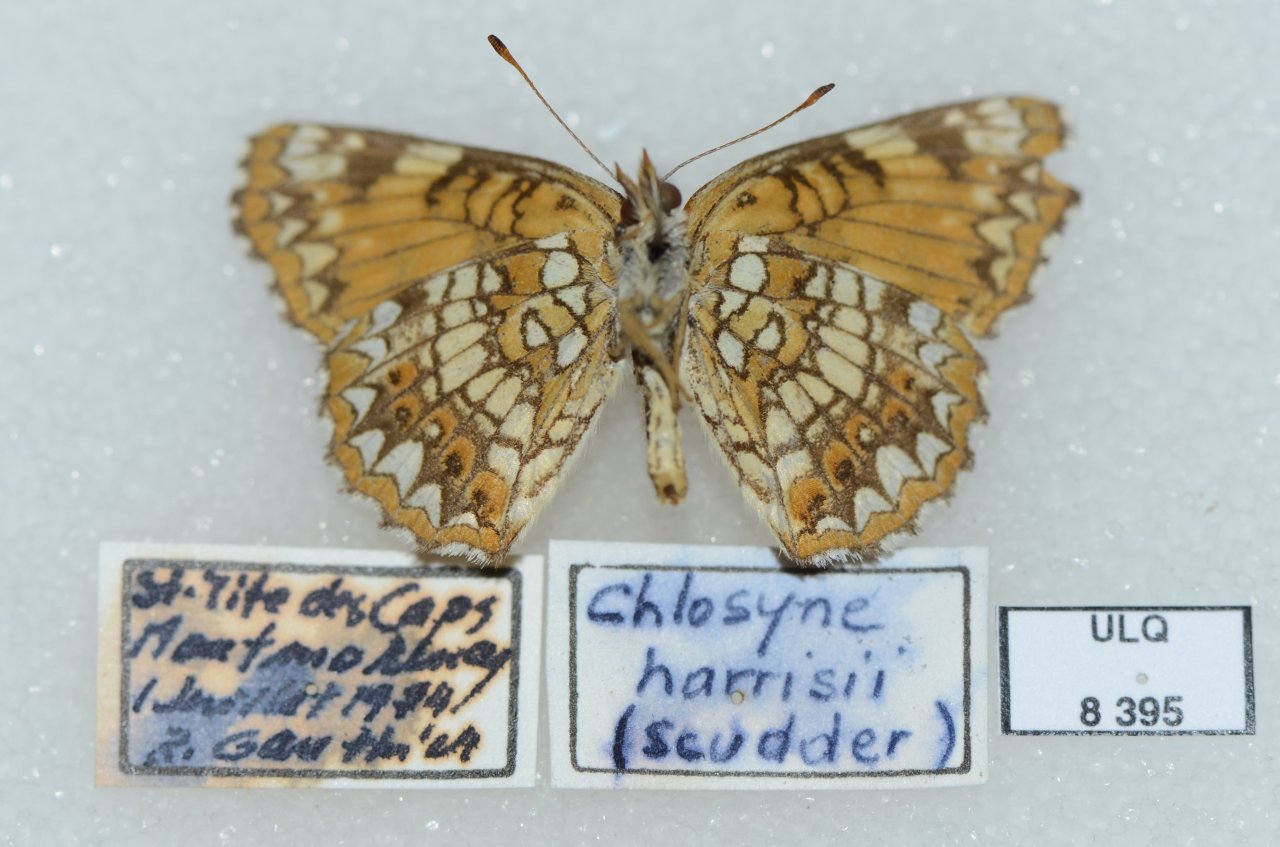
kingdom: Animalia
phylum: Arthropoda
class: Insecta
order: Lepidoptera
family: Nymphalidae
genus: Chlosyne
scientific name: Chlosyne harrisii
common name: Harris's Checkerspot
